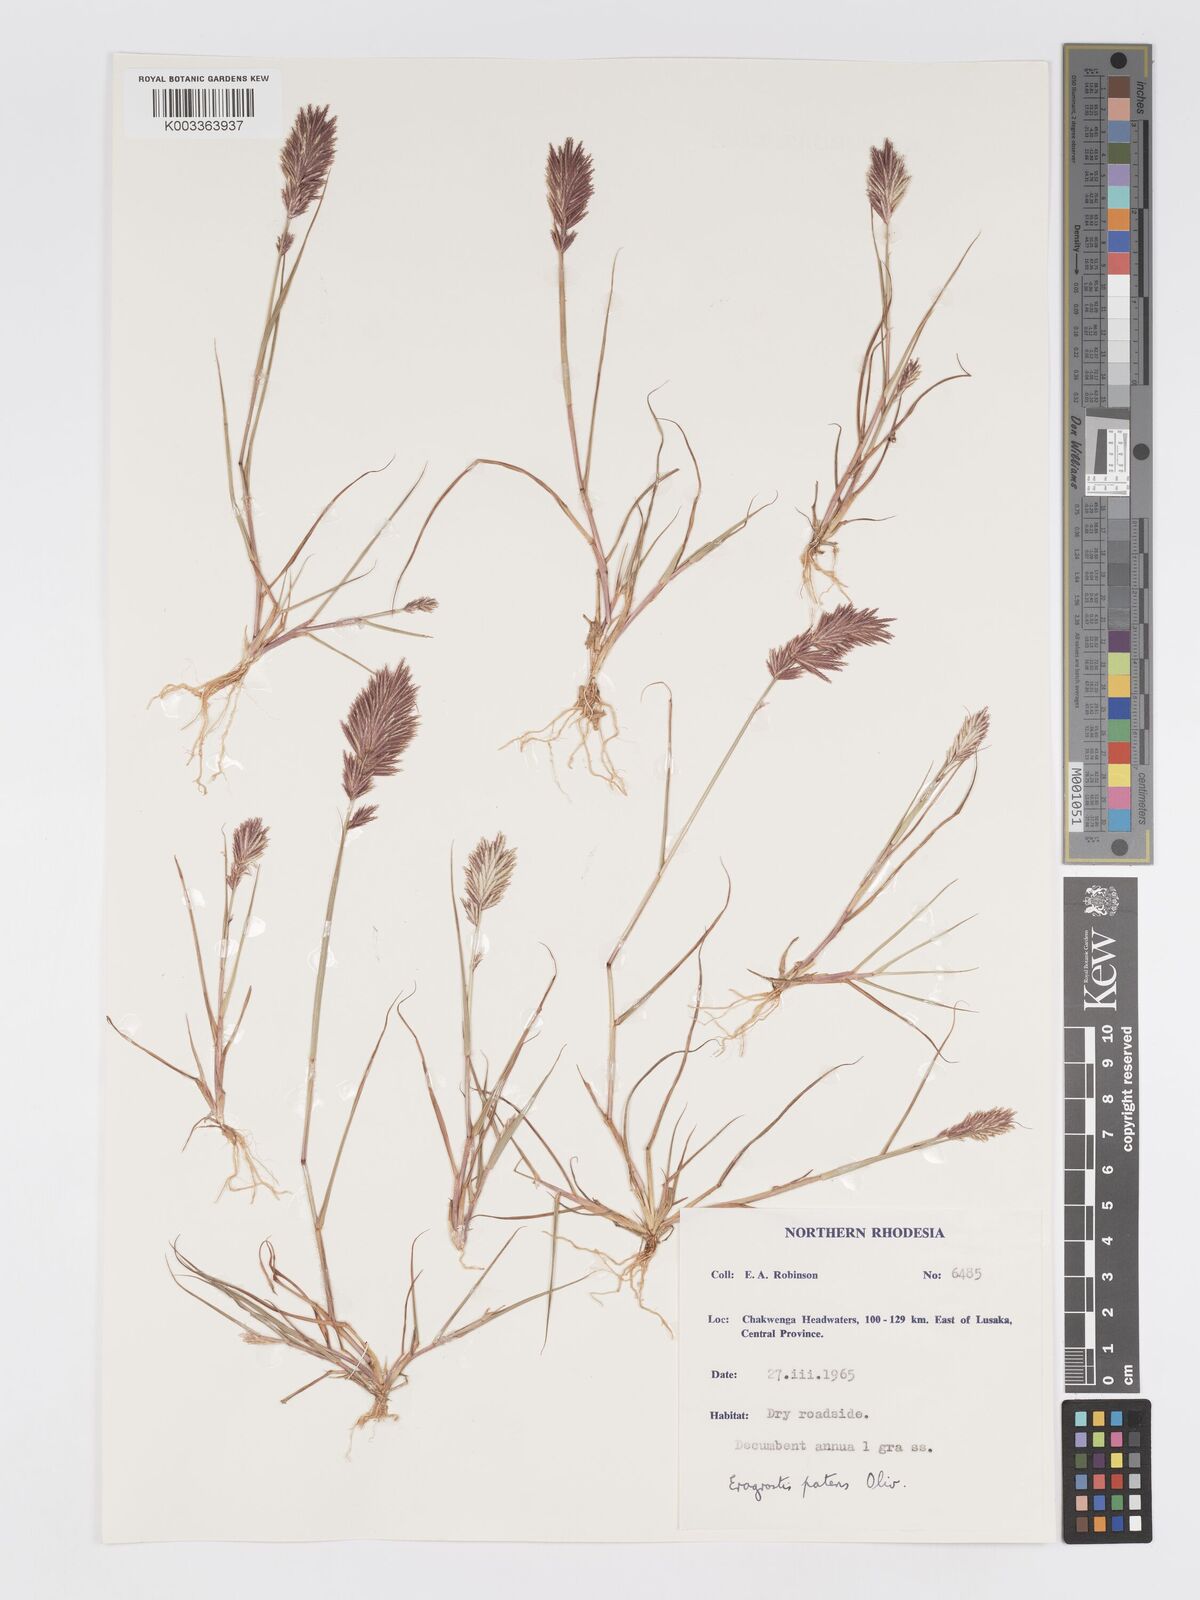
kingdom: Plantae
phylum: Tracheophyta
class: Liliopsida
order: Poales
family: Poaceae
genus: Eragrostis
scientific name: Eragrostis patens
